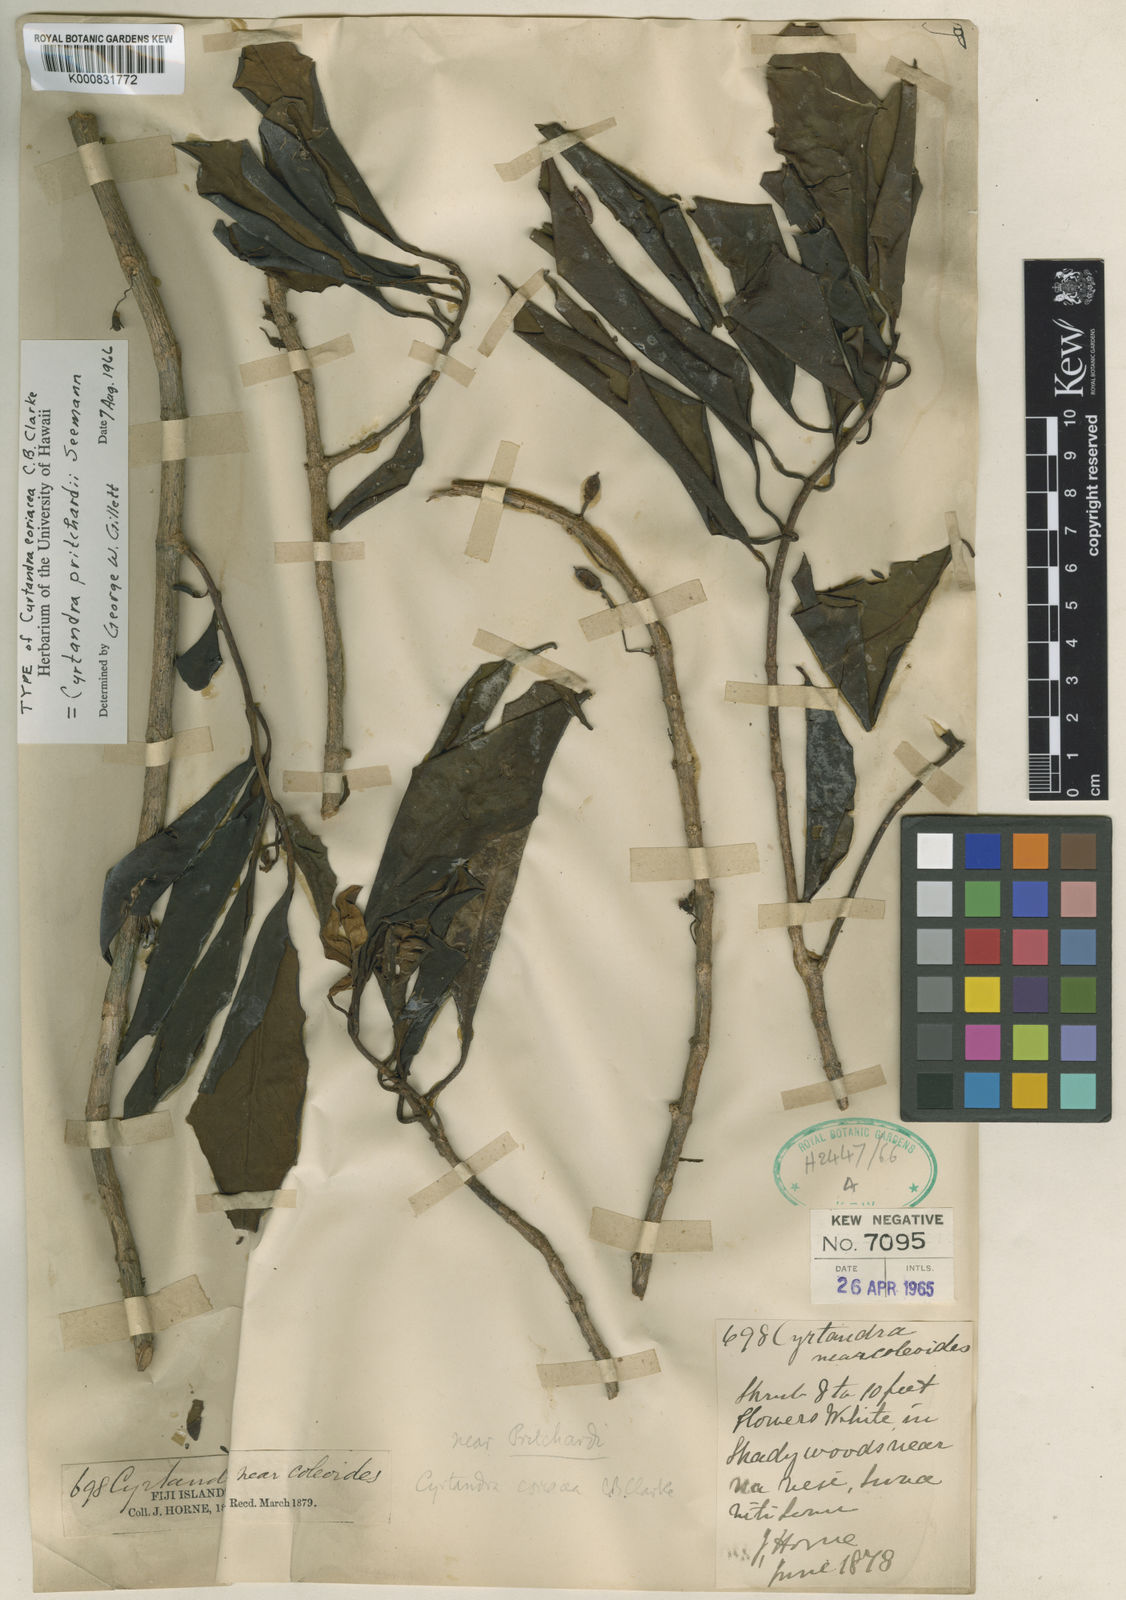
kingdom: Plantae
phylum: Tracheophyta
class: Magnoliopsida
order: Lamiales
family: Gesneriaceae
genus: Cyrtandra
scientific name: Cyrtandra pritchardii
